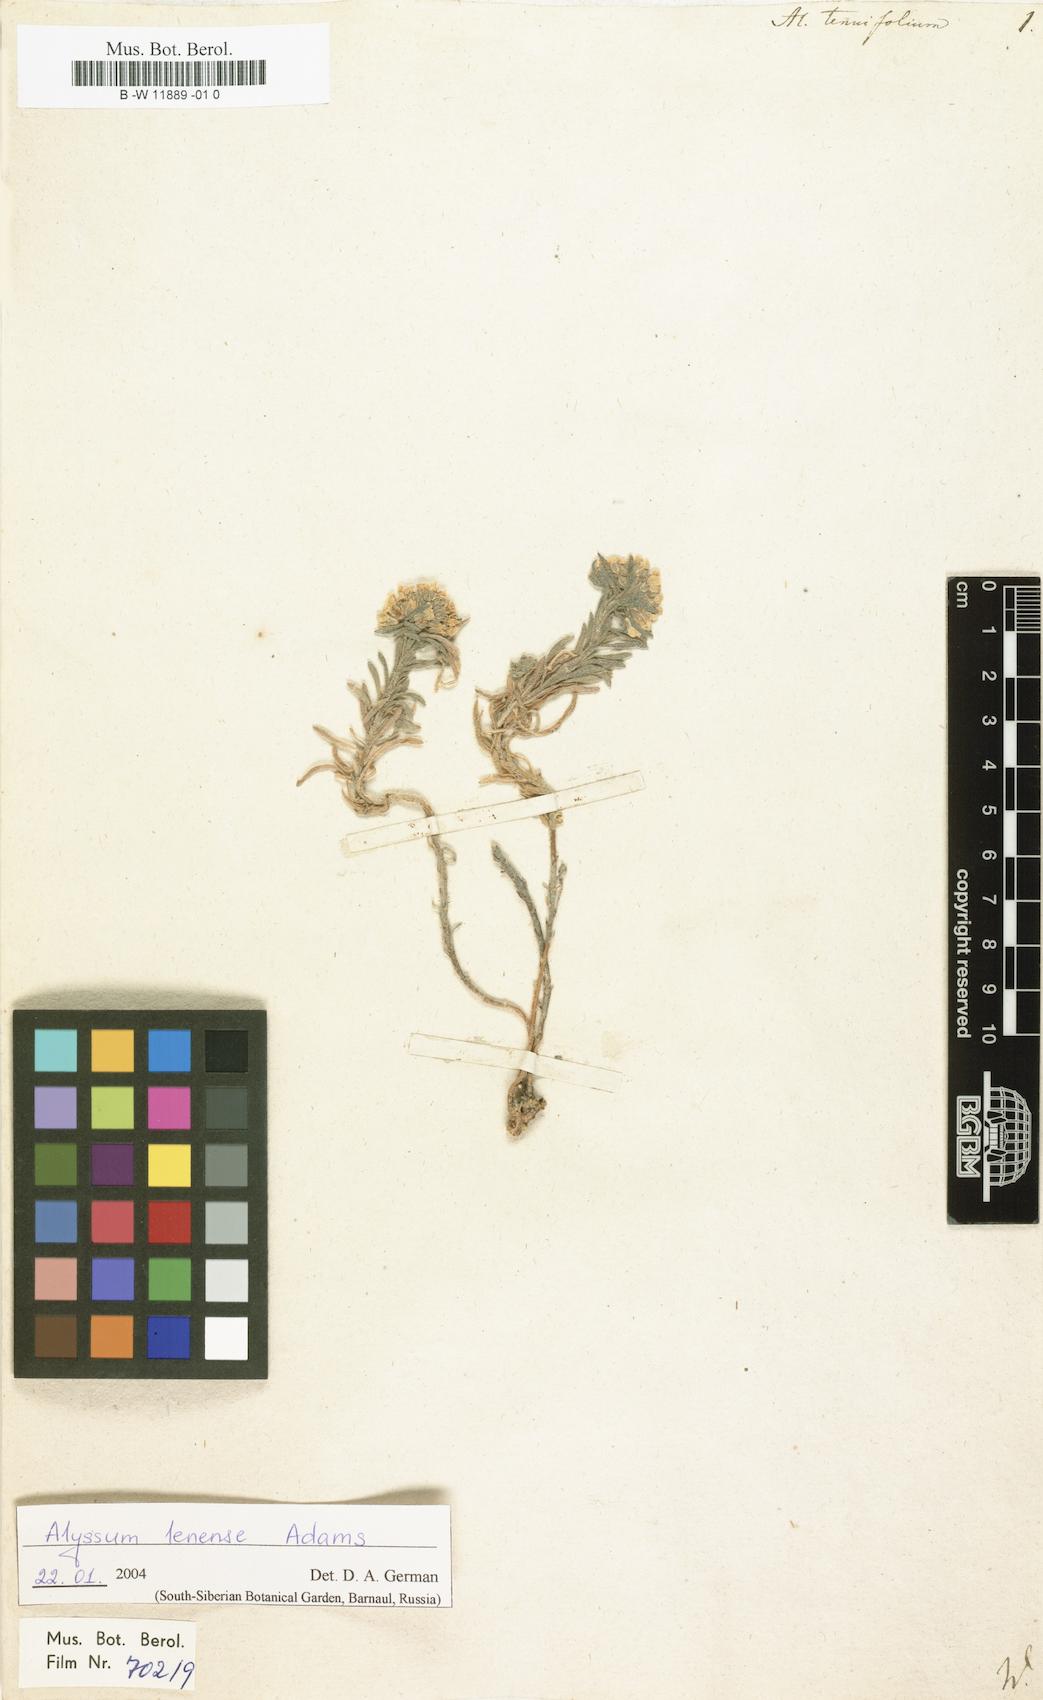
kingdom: Plantae
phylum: Tracheophyta
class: Magnoliopsida
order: Brassicales
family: Brassicaceae
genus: Stevenia
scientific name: Stevenia tenuifolia
